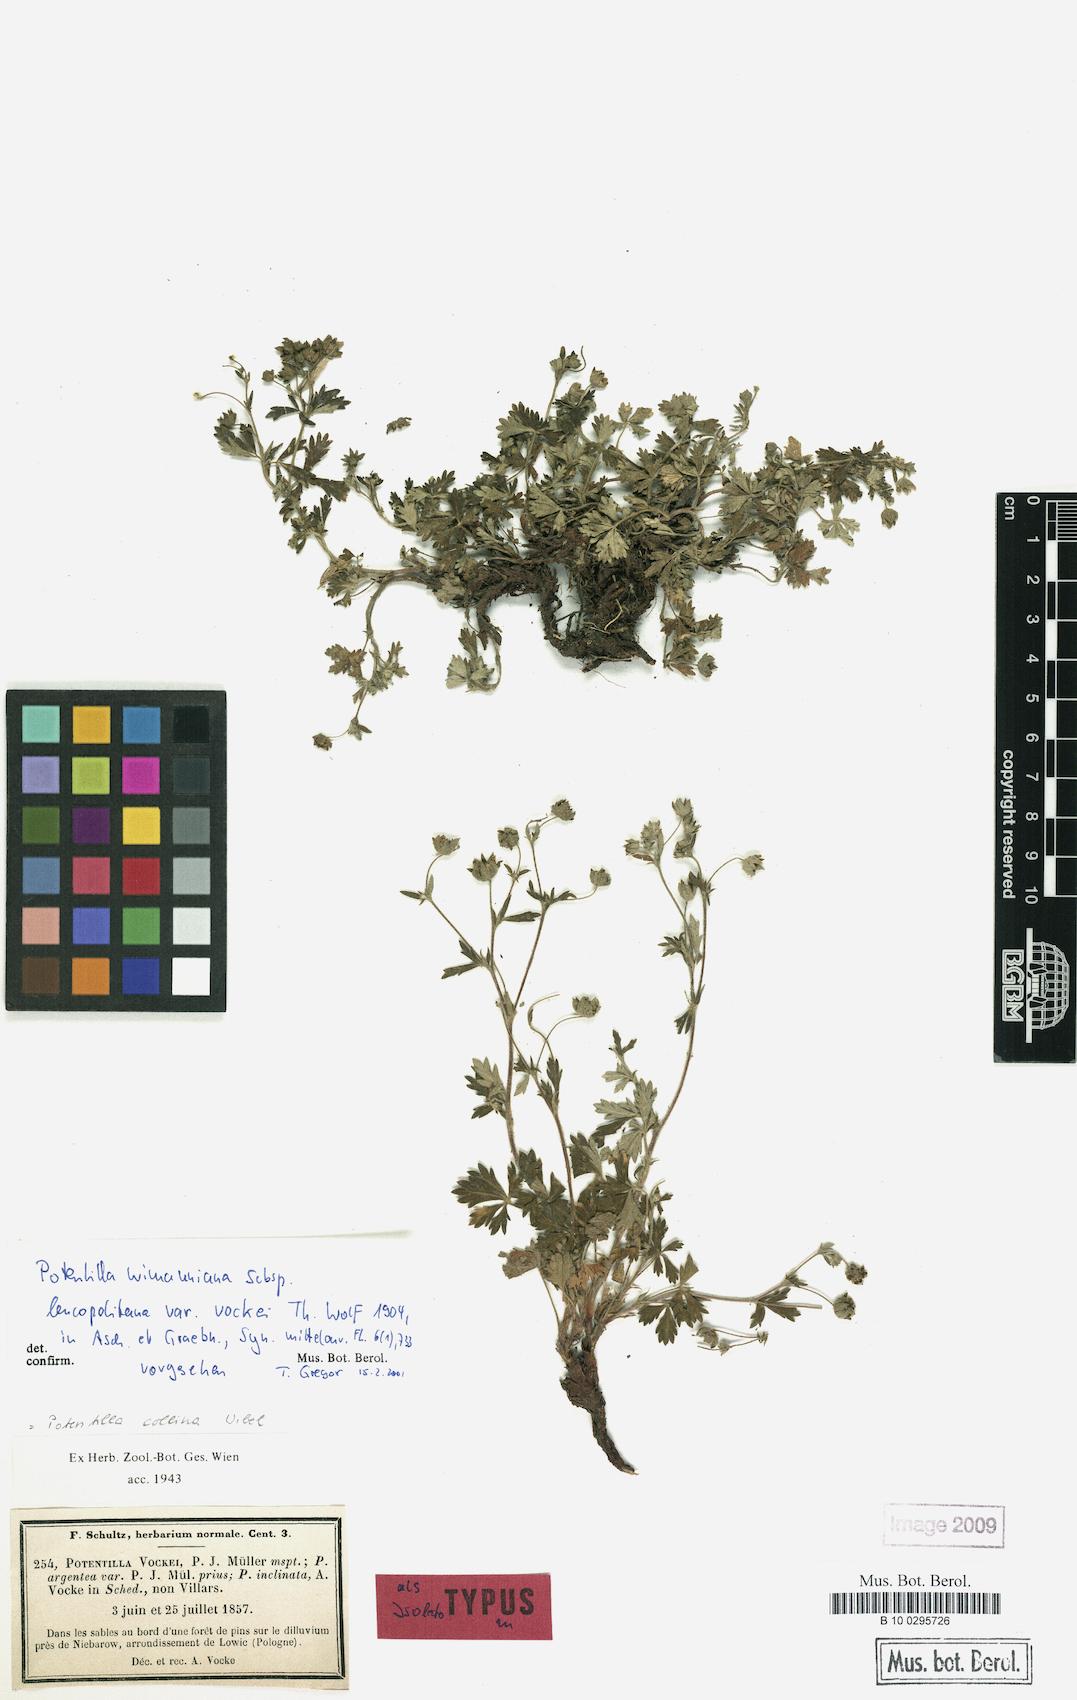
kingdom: Plantae
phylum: Tracheophyta
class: Magnoliopsida
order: Rosales
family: Rosaceae
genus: Potentilla
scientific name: Potentilla
